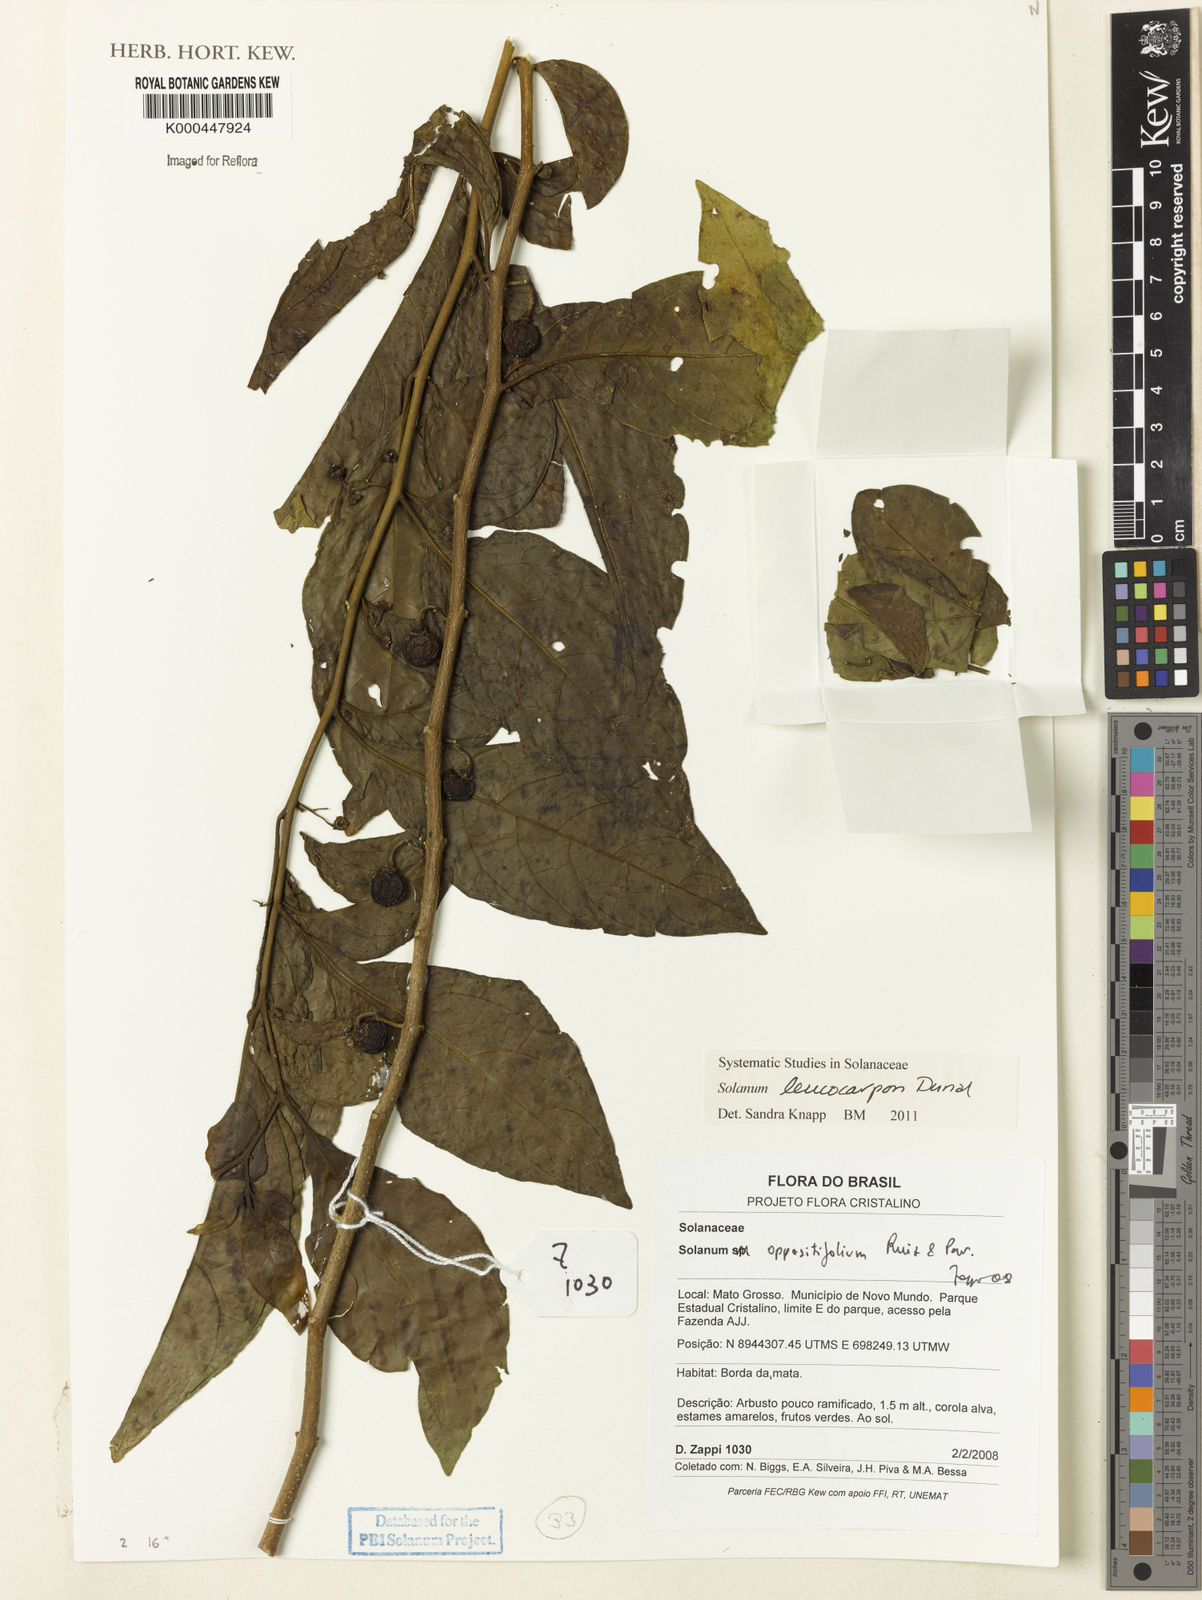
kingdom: Plantae
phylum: Tracheophyta
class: Magnoliopsida
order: Solanales
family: Solanaceae
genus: Solanum
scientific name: Solanum oppositifolium
